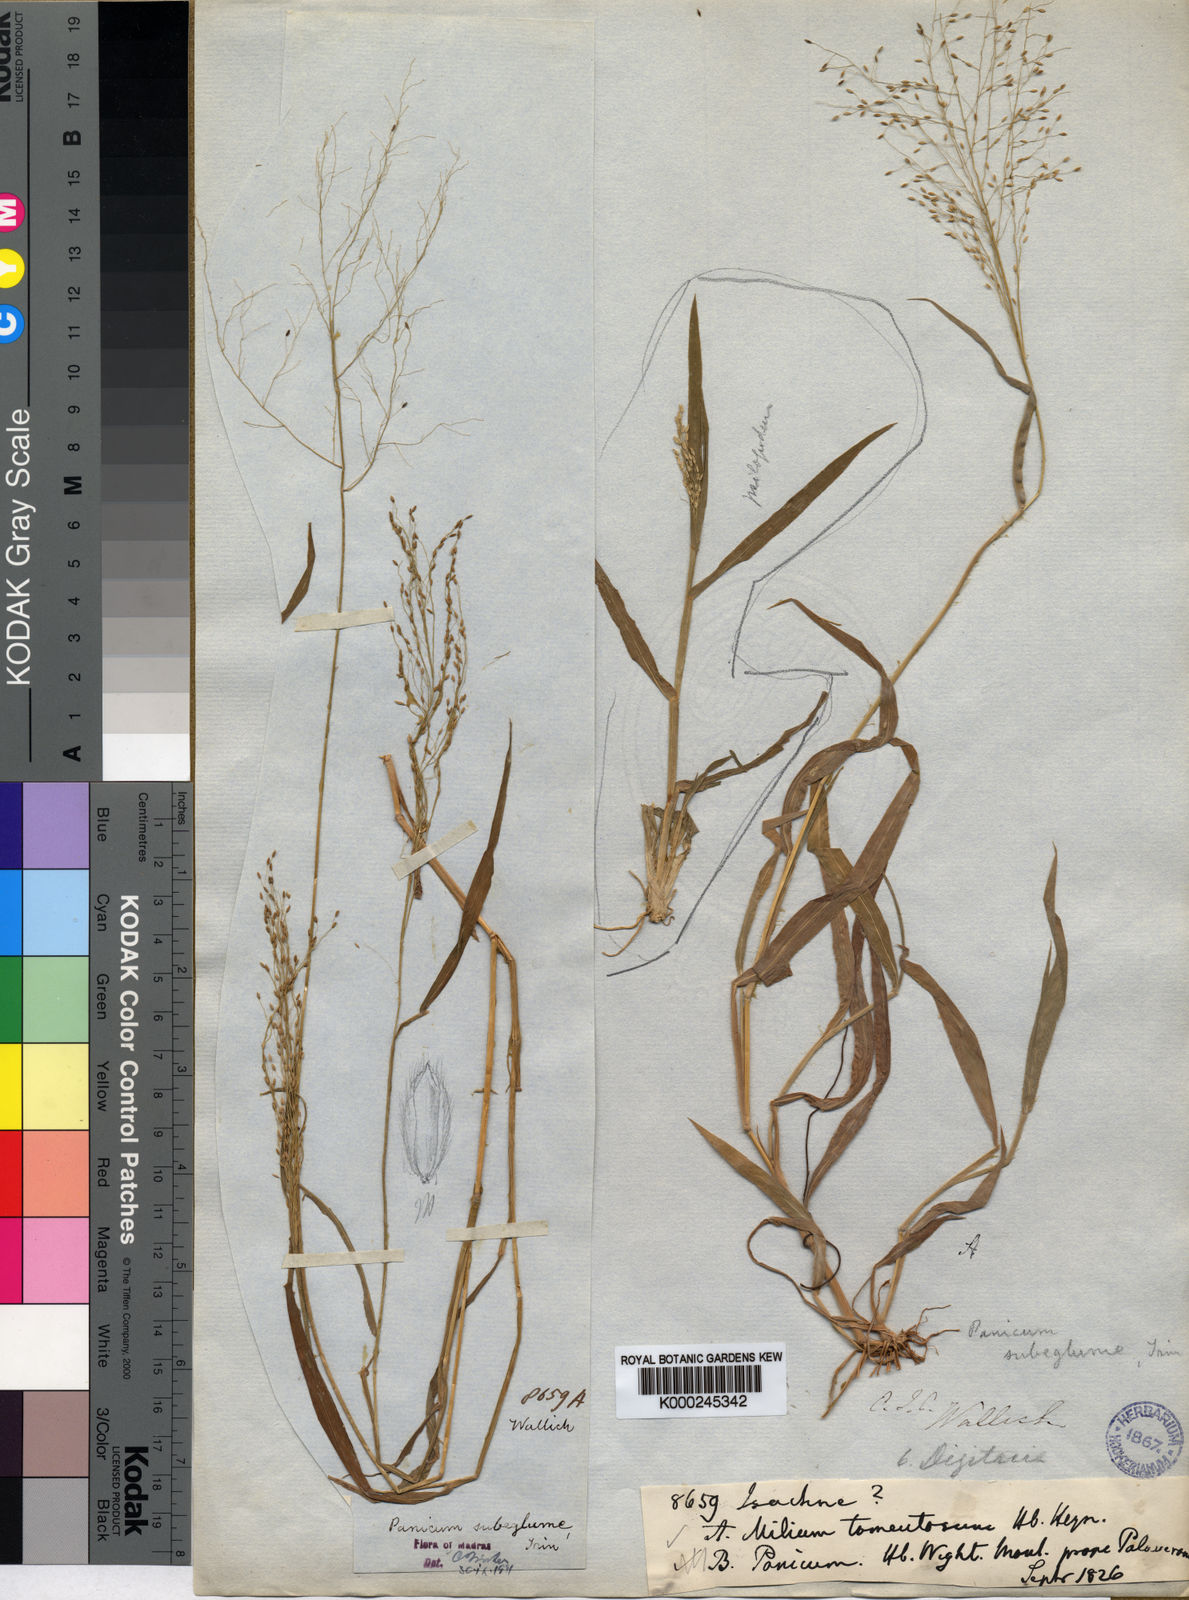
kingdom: Plantae
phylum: Tracheophyta
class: Liliopsida
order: Poales
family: Poaceae
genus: Digitaria
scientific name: Digitaria tomentosa
